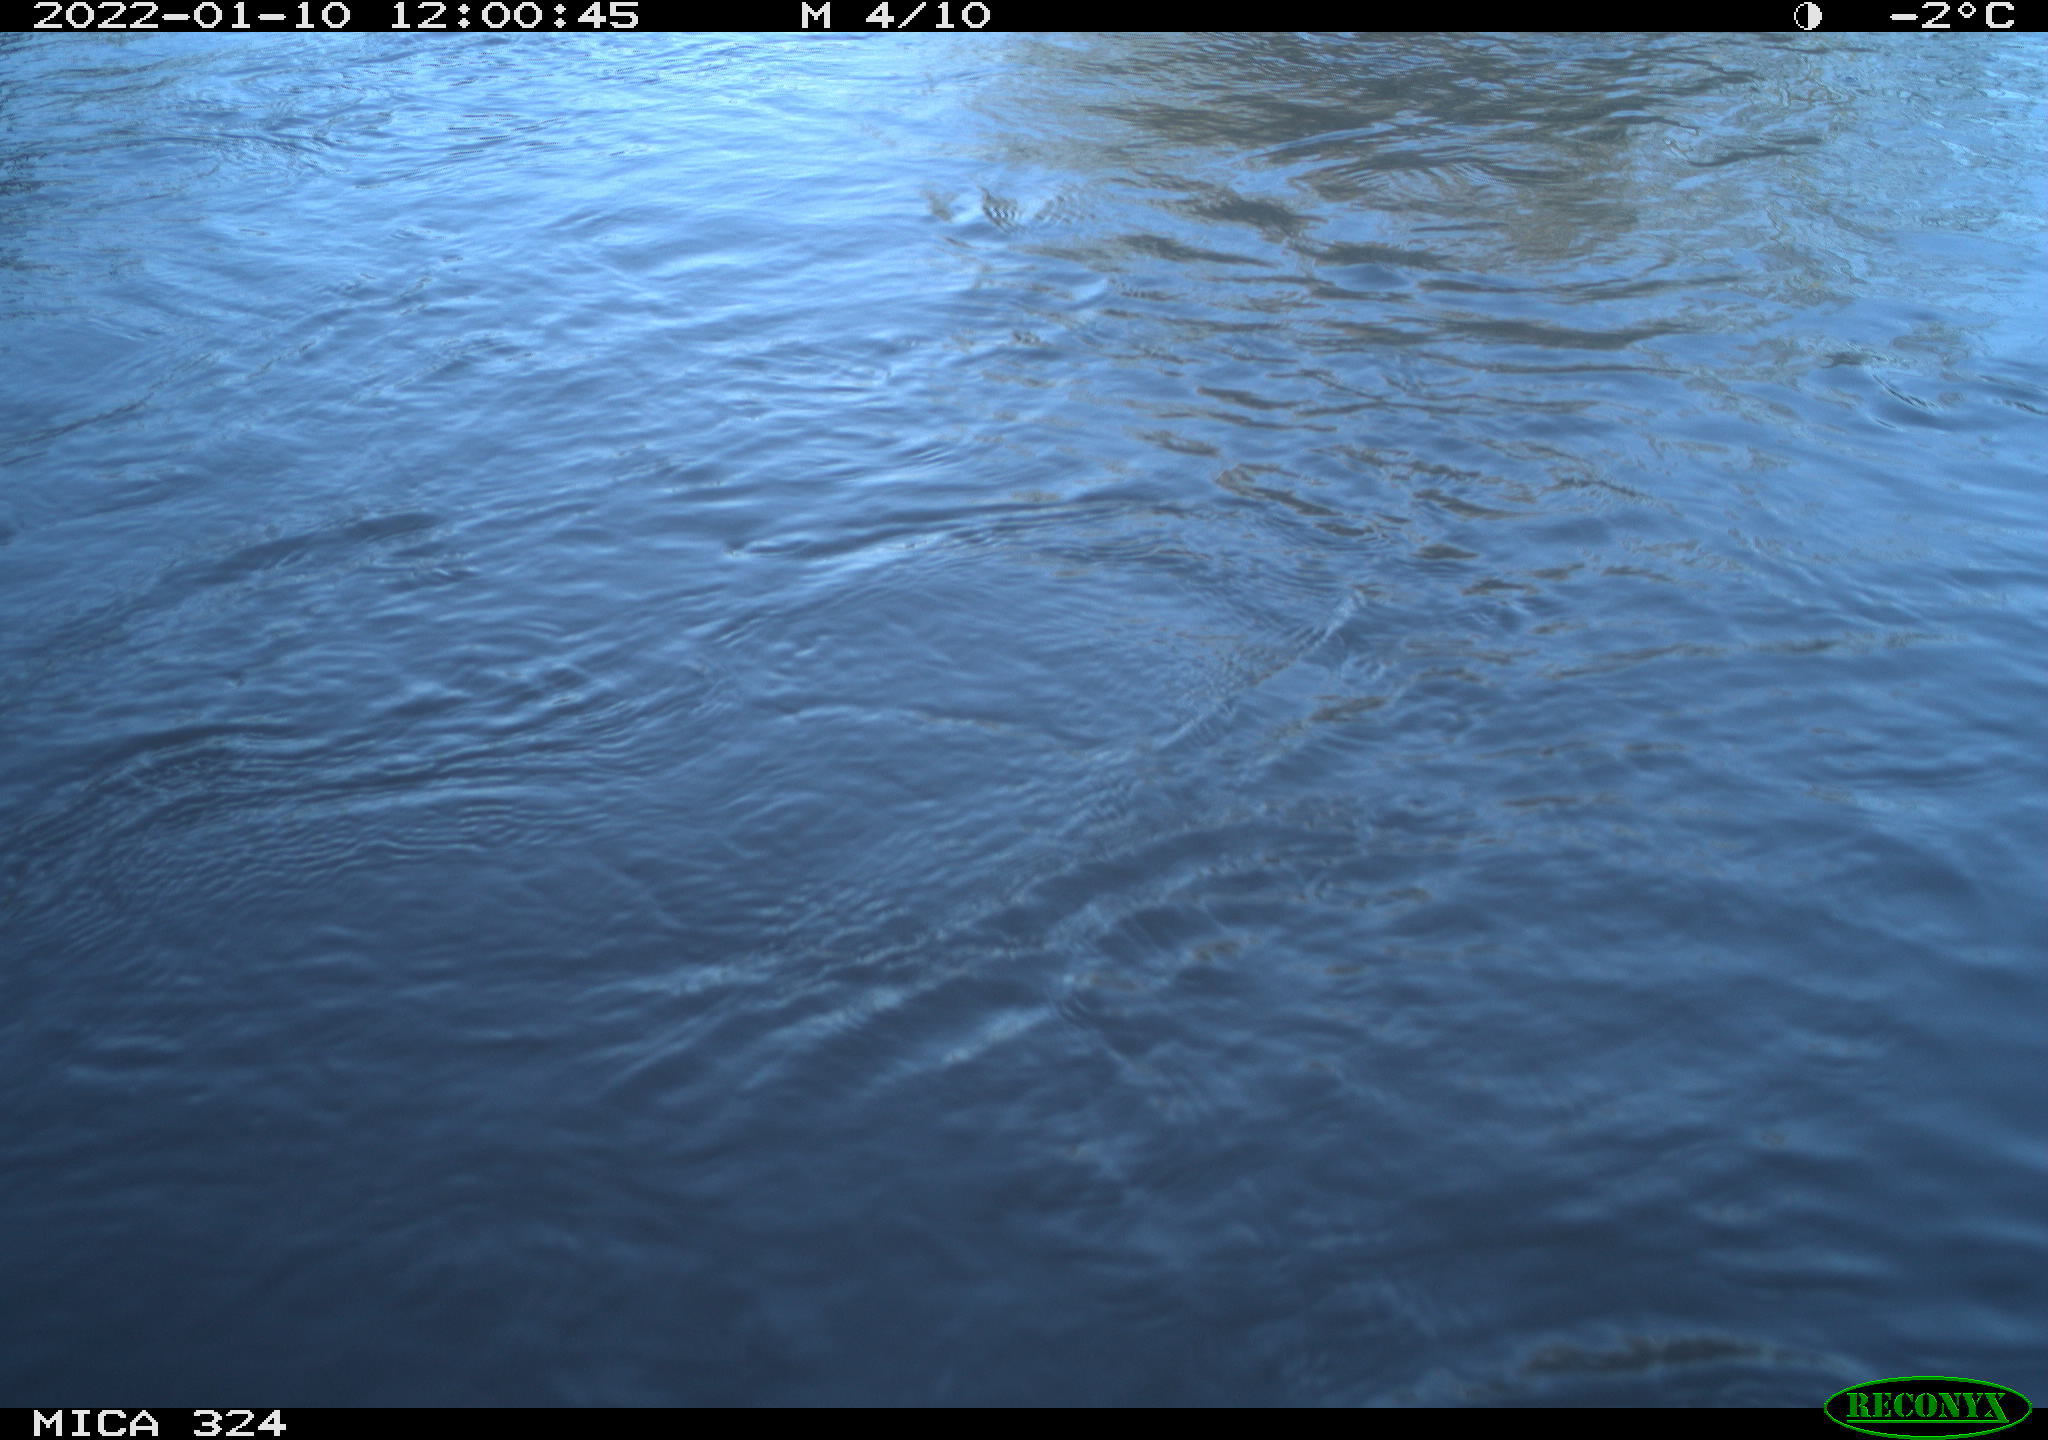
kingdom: Animalia
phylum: Chordata
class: Mammalia
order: Rodentia
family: Cricetidae
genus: Ondatra
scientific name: Ondatra zibethicus
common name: Muskrat
